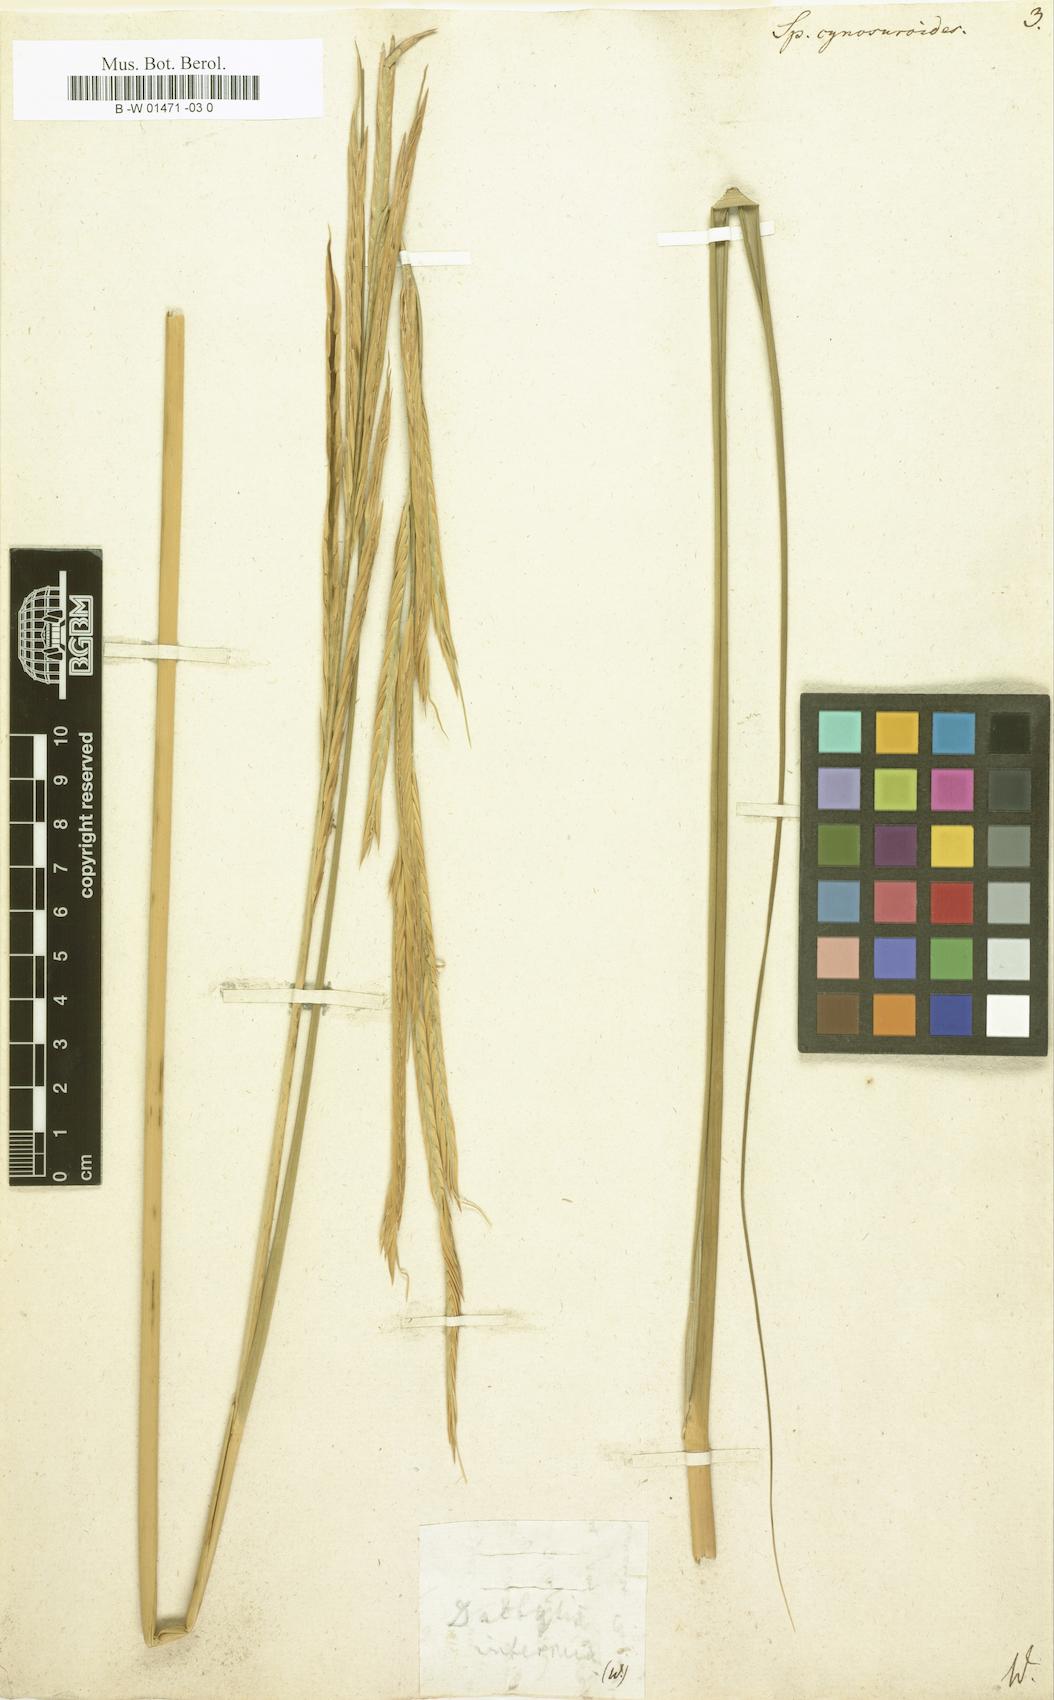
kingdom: Plantae
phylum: Tracheophyta
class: Liliopsida
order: Poales
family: Poaceae
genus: Sporobolus
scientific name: Sporobolus cynosuroides
